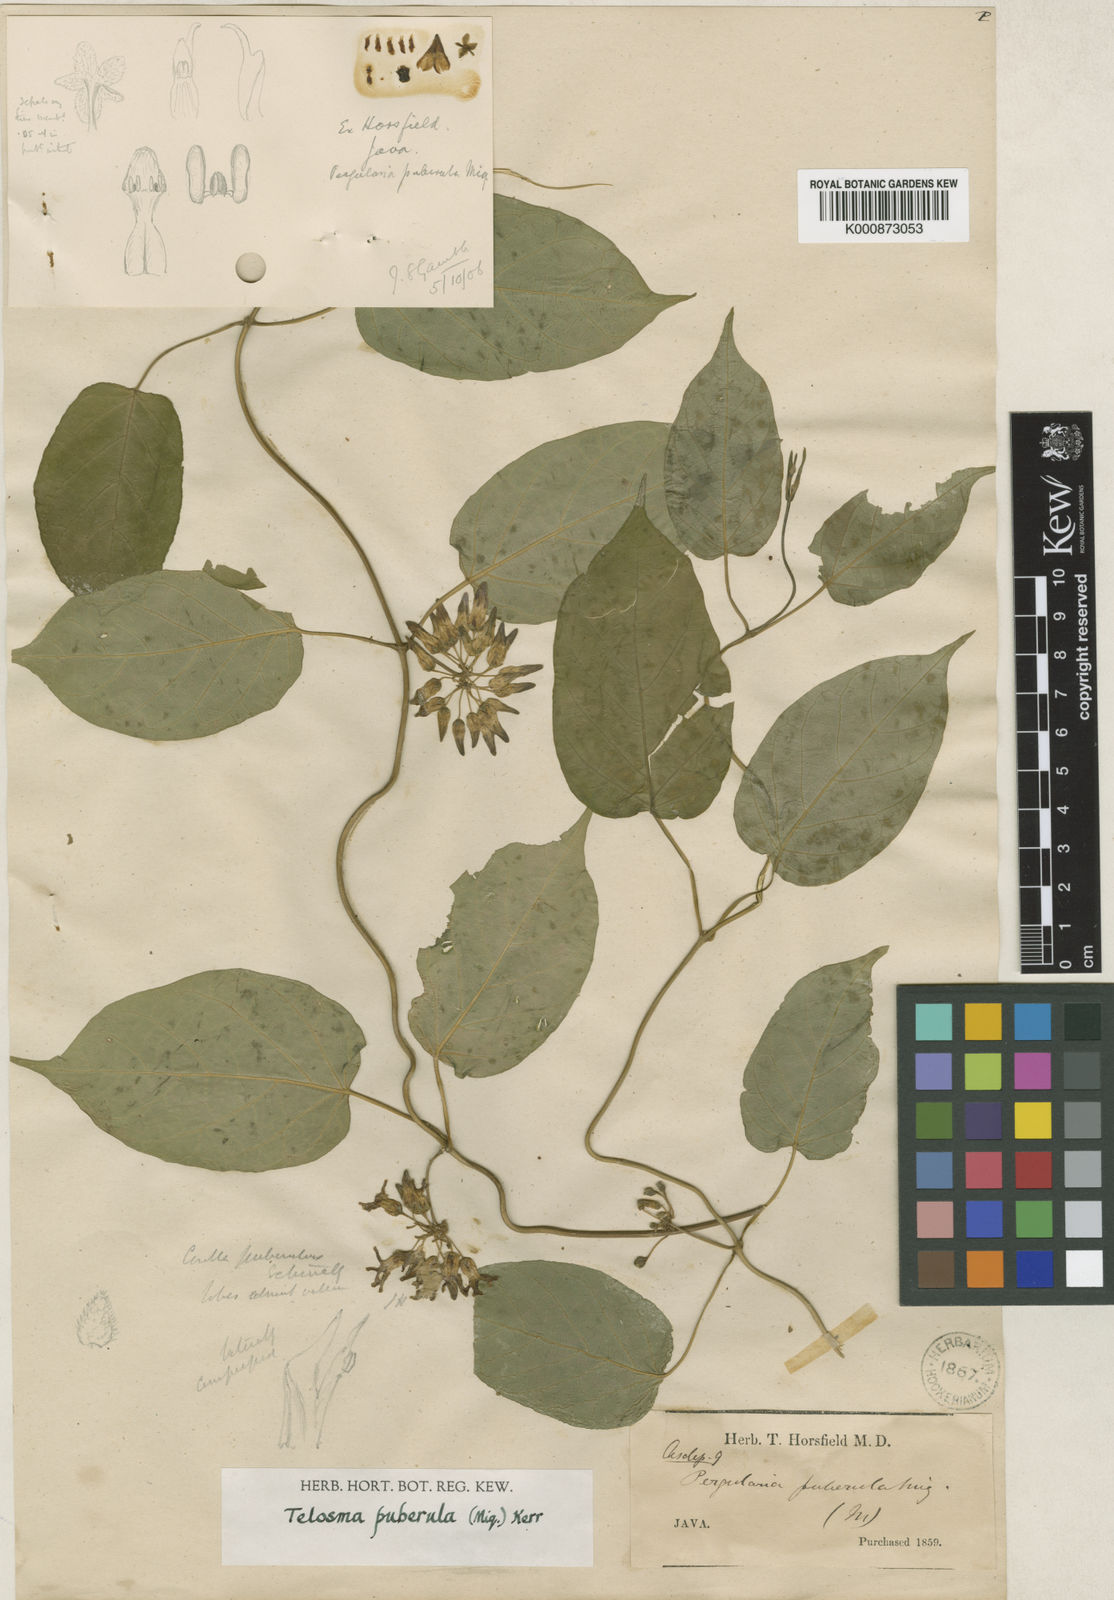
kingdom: Plantae
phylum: Tracheophyta
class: Magnoliopsida
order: Gentianales
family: Apocynaceae
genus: Telosma
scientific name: Telosma puberula
